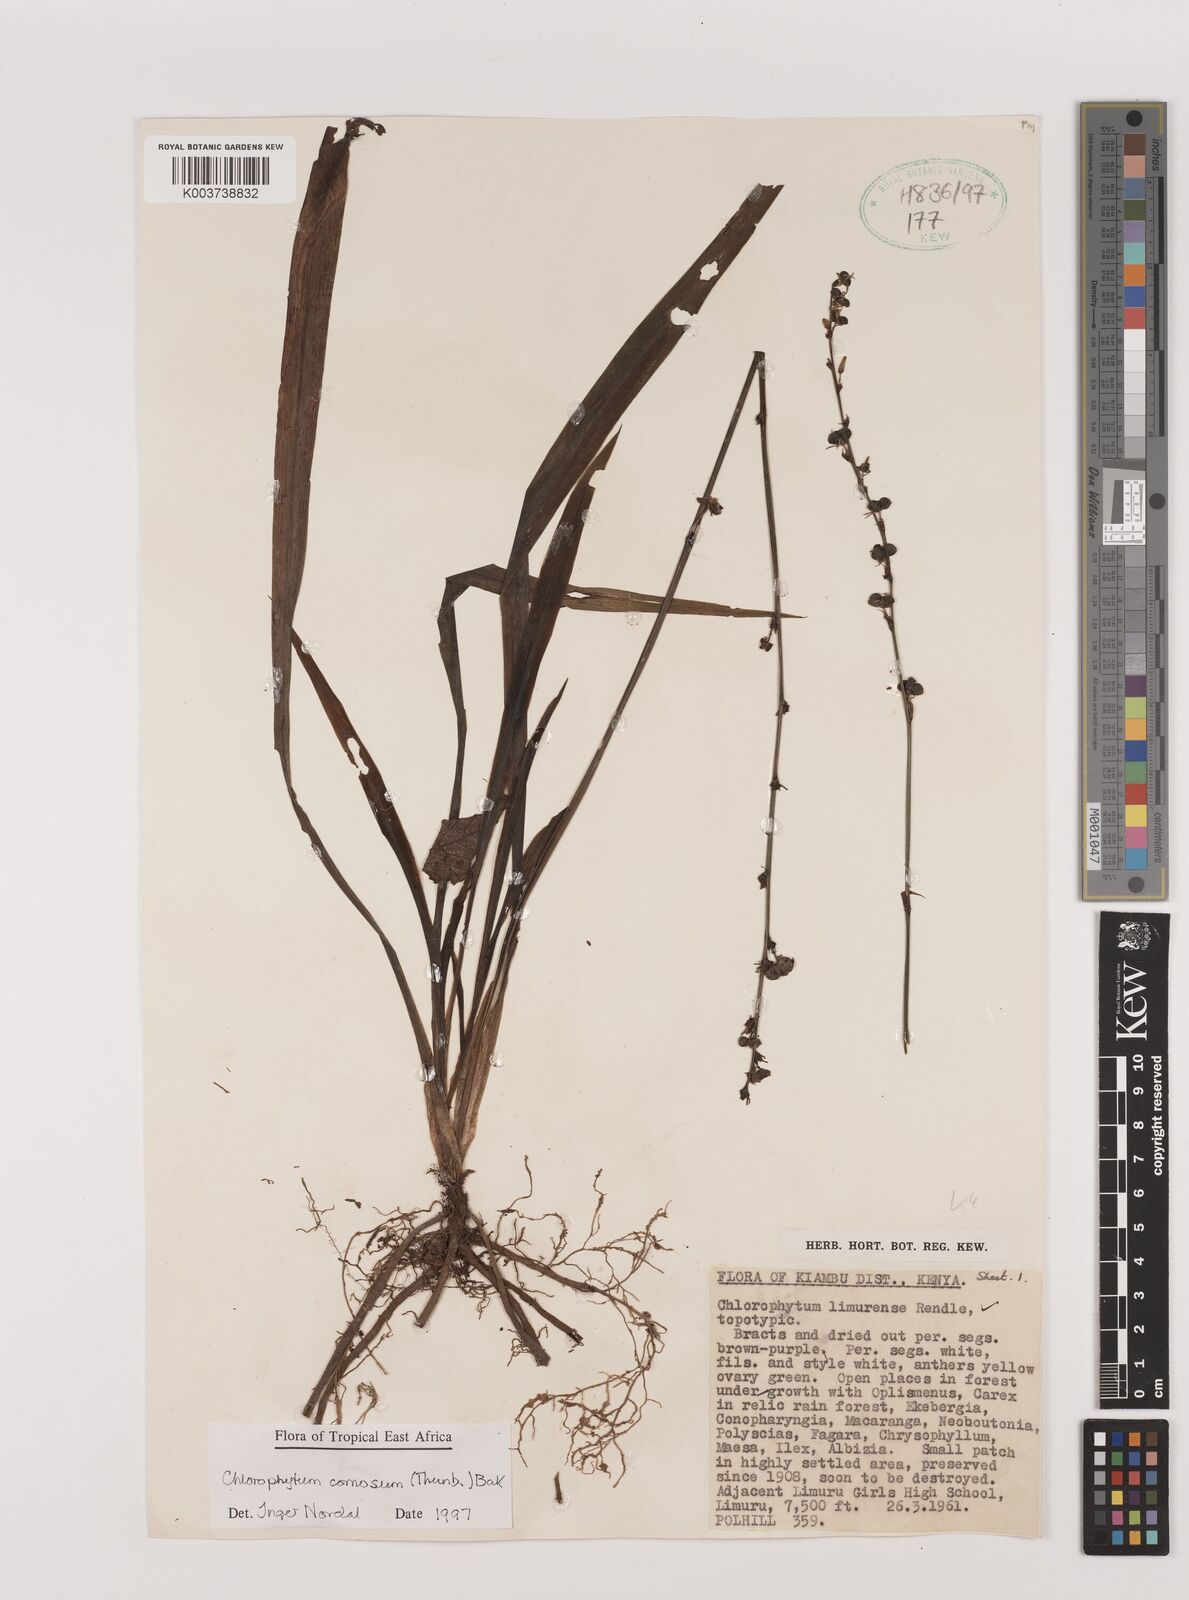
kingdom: Plantae
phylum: Tracheophyta
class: Liliopsida
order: Asparagales
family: Asparagaceae
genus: Chlorophytum
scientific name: Chlorophytum comosum
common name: Spider plant
